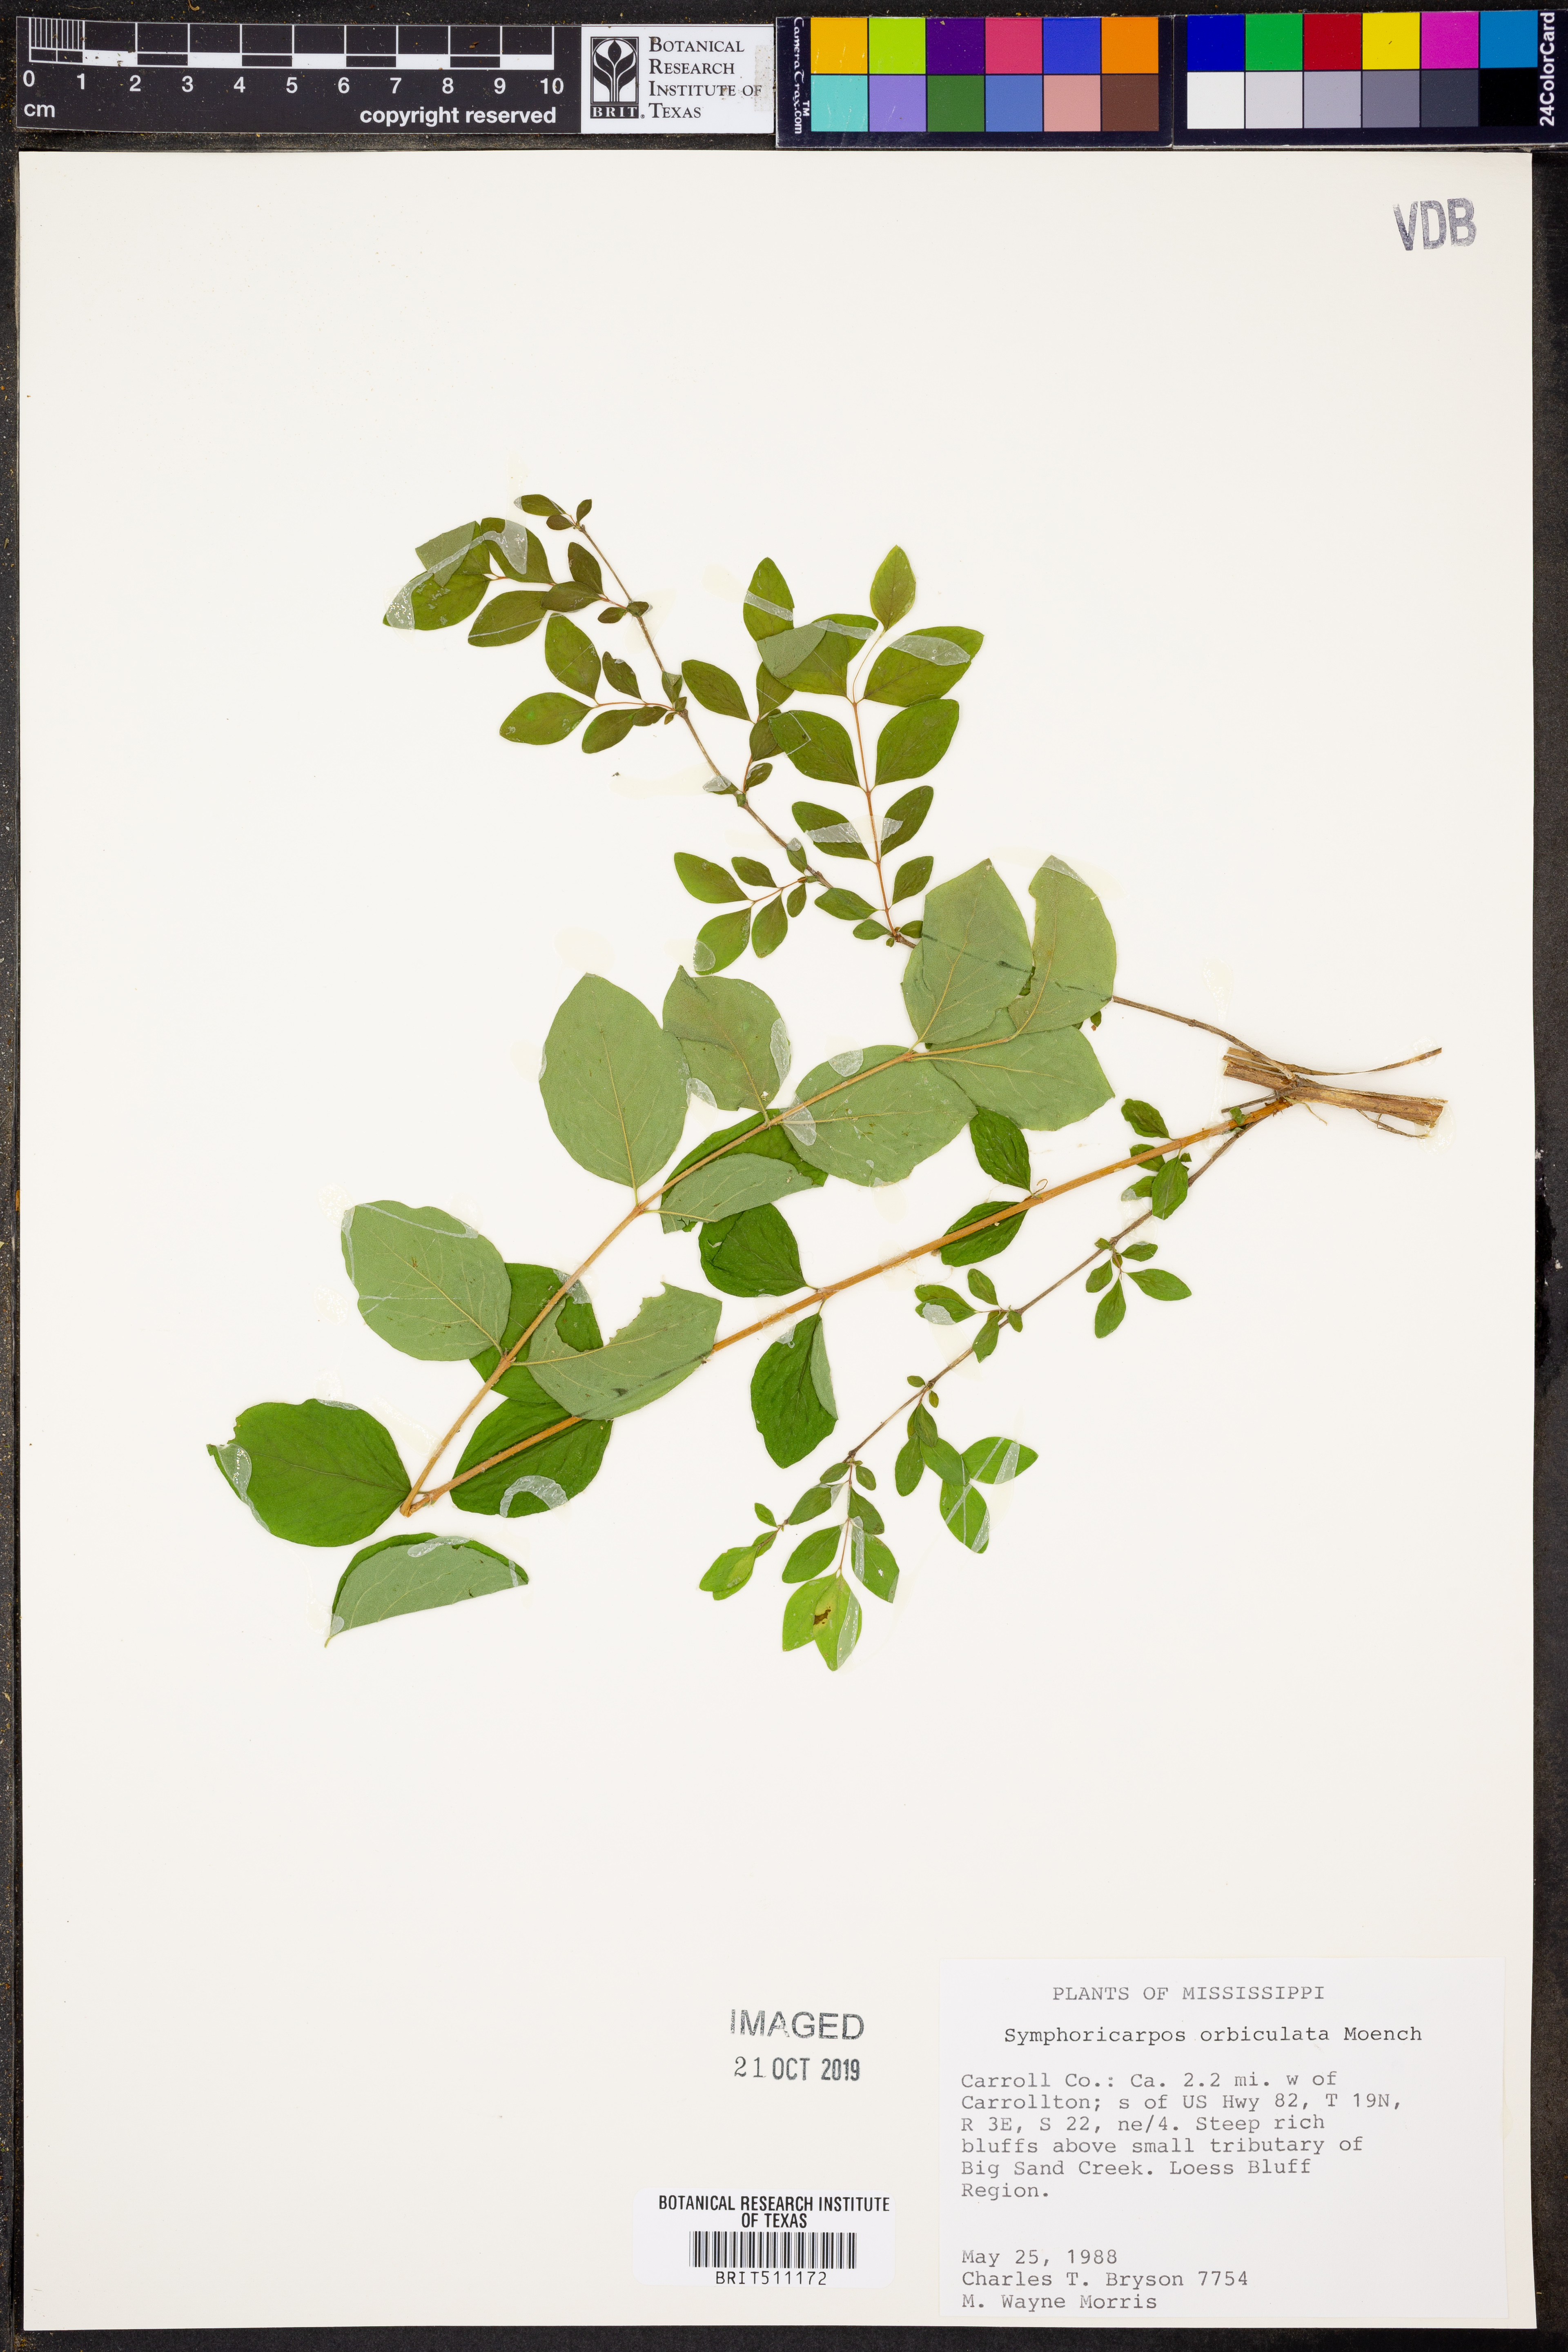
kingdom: Plantae
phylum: Tracheophyta
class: Magnoliopsida
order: Dipsacales
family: Caprifoliaceae
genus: Symphoricarpos
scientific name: Symphoricarpos orbiculatus
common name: Coralberry
